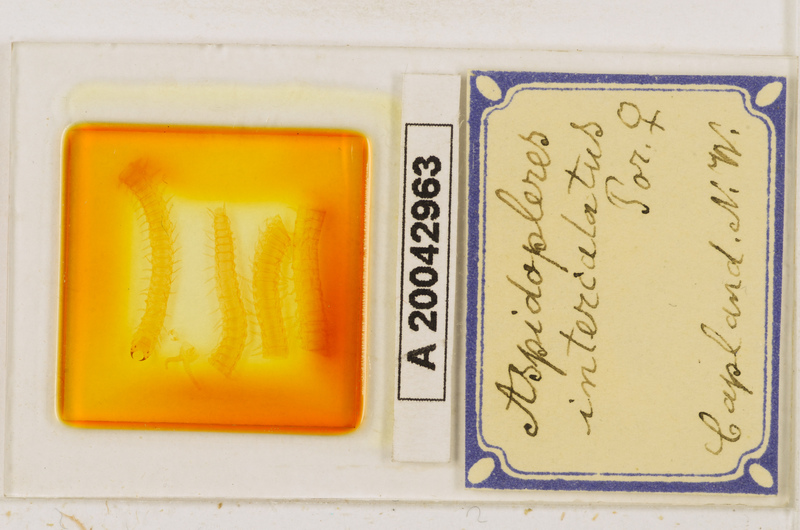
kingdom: Animalia
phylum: Arthropoda
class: Chilopoda
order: Geophilomorpha
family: Oryidae
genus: Aspidopleres
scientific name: Aspidopleres intercalatus
